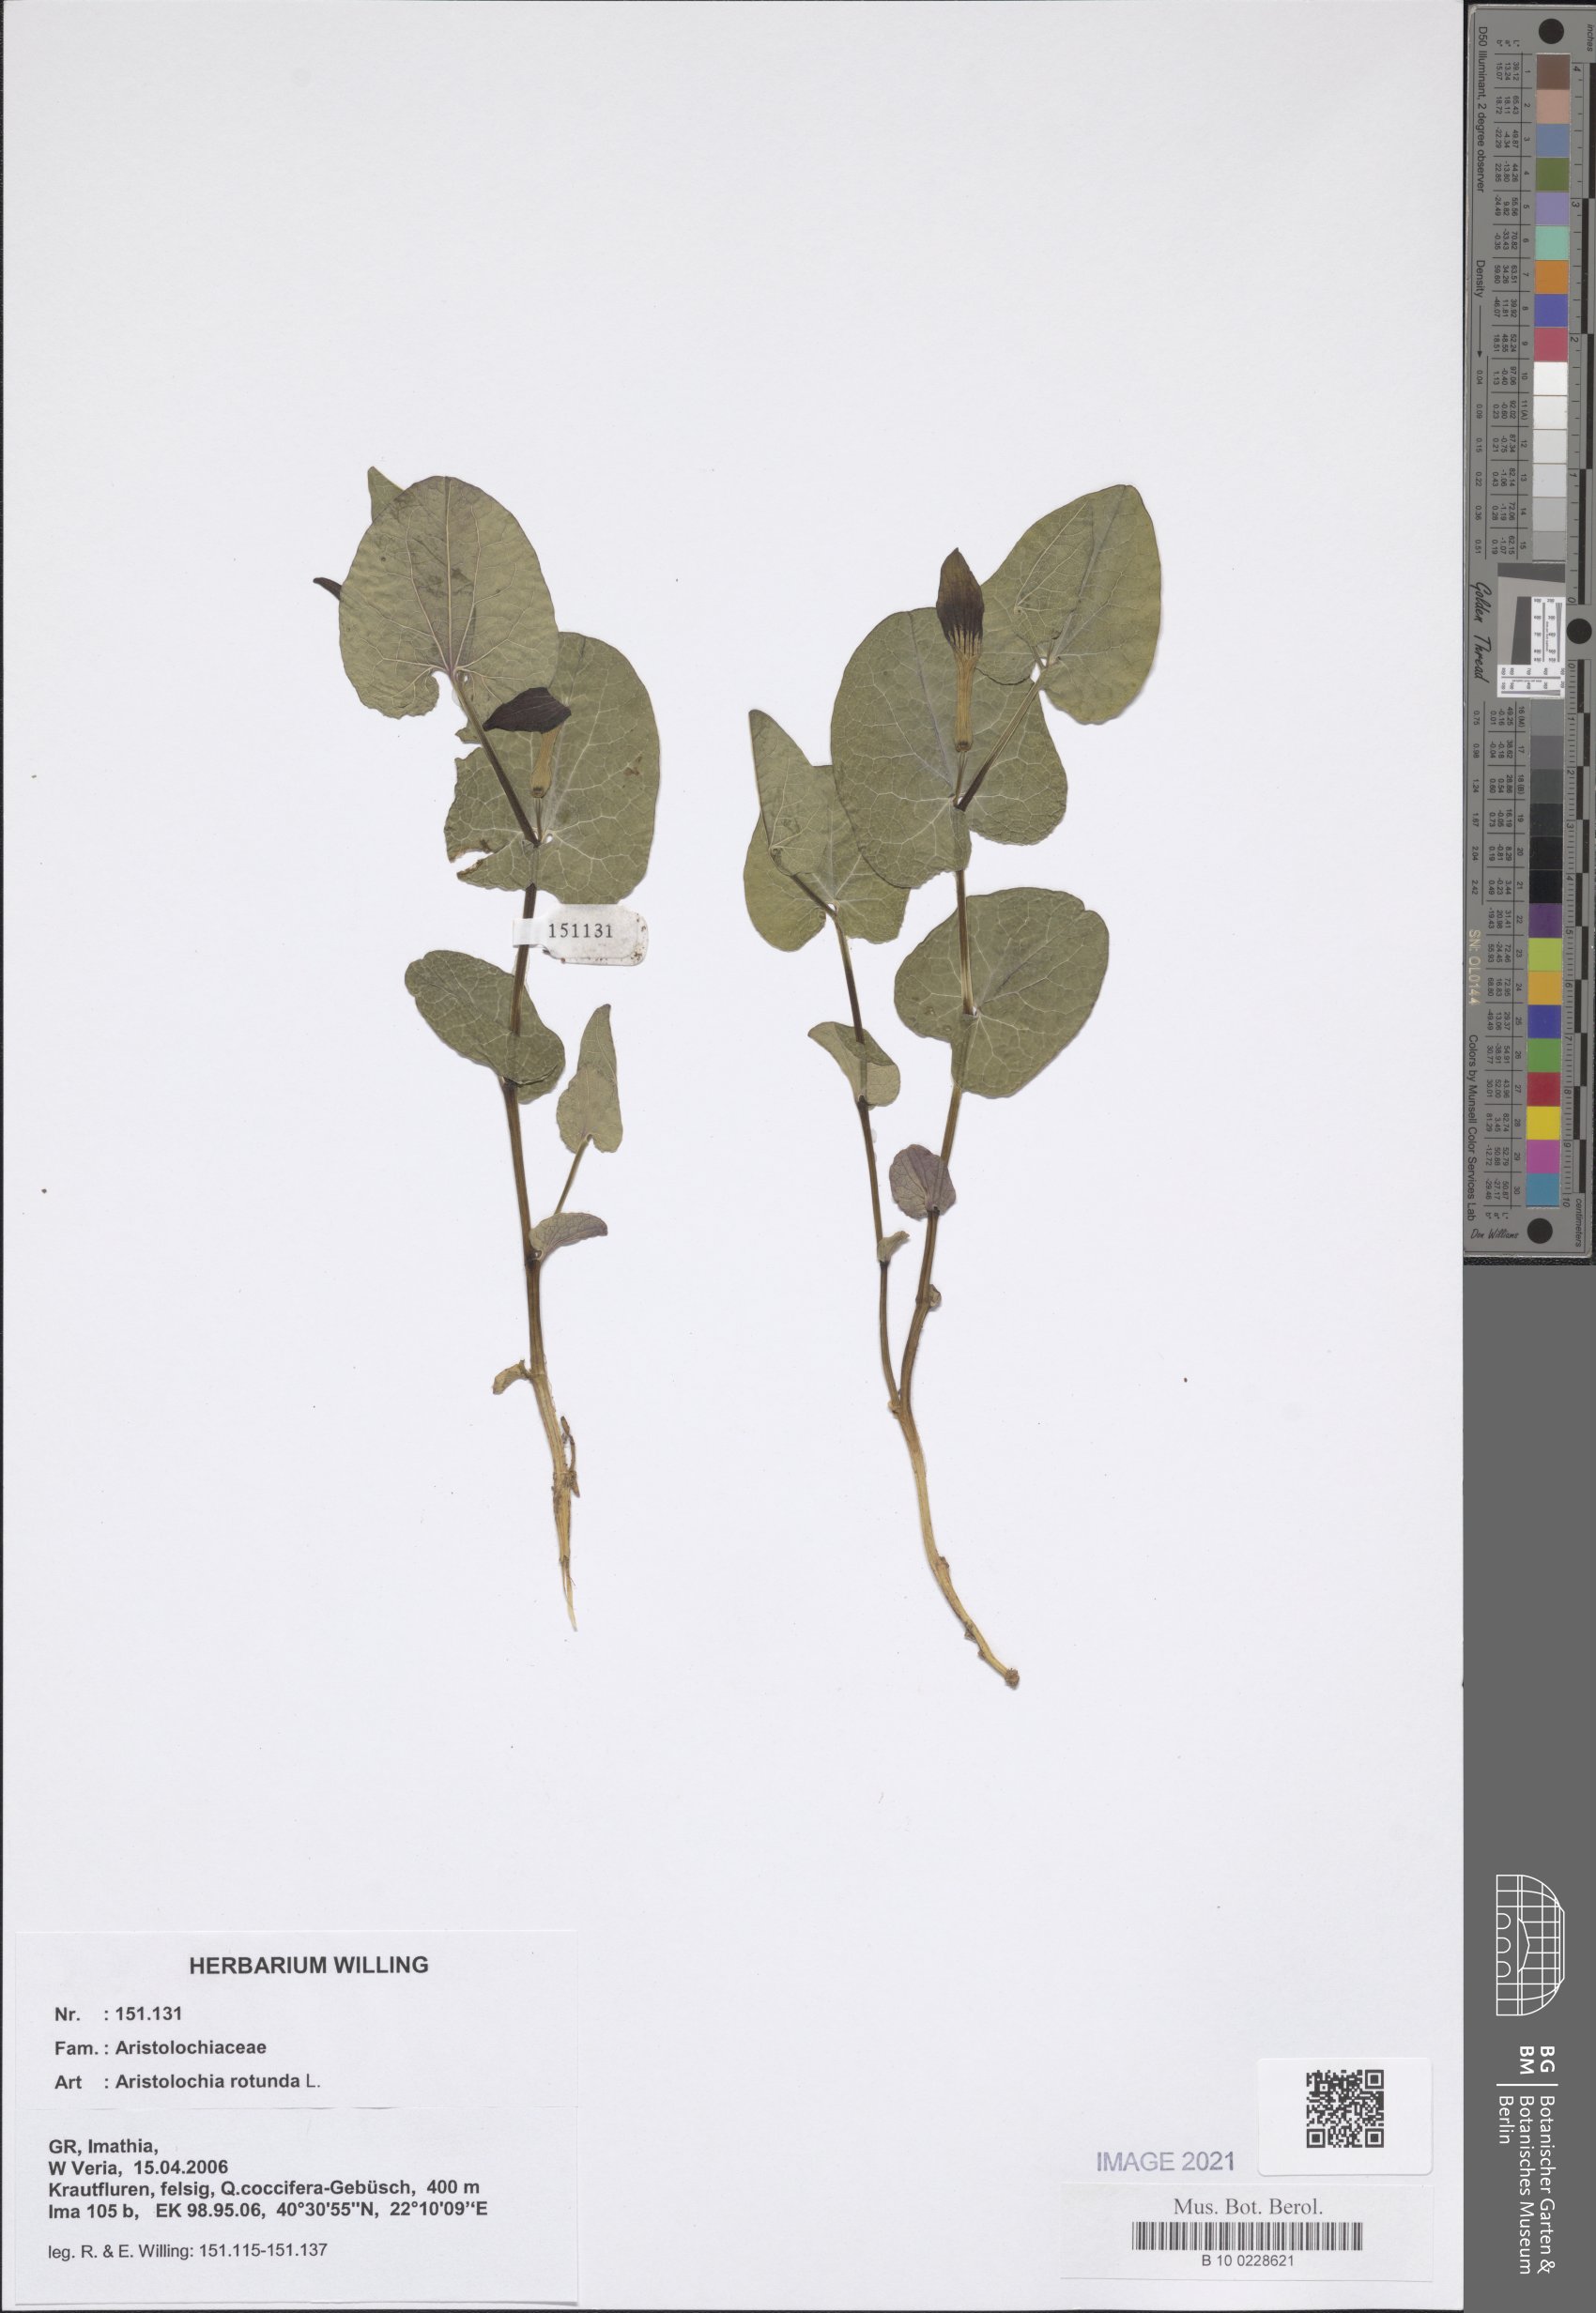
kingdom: Plantae
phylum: Tracheophyta
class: Magnoliopsida
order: Piperales
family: Aristolochiaceae
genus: Aristolochia
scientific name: Aristolochia rotunda
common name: Smearwort
